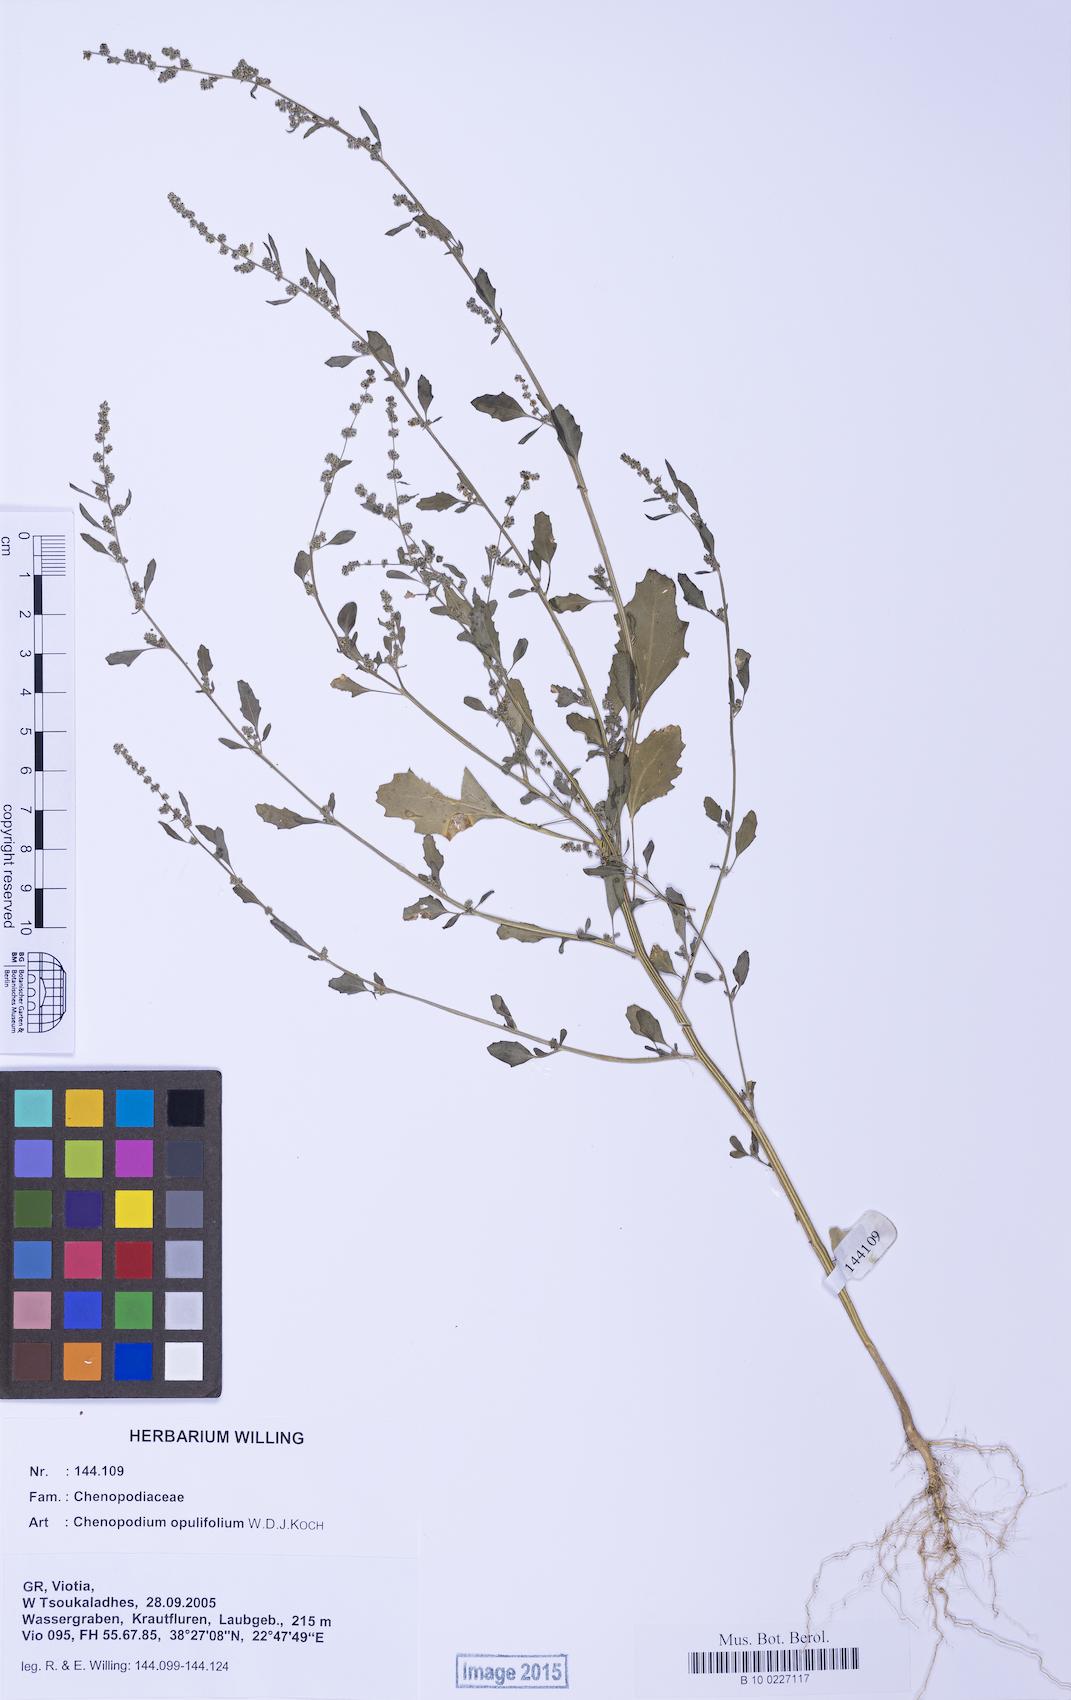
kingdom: Plantae
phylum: Tracheophyta
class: Magnoliopsida
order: Caryophyllales
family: Amaranthaceae
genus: Chenopodium
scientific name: Chenopodium album
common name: Fat-hen
